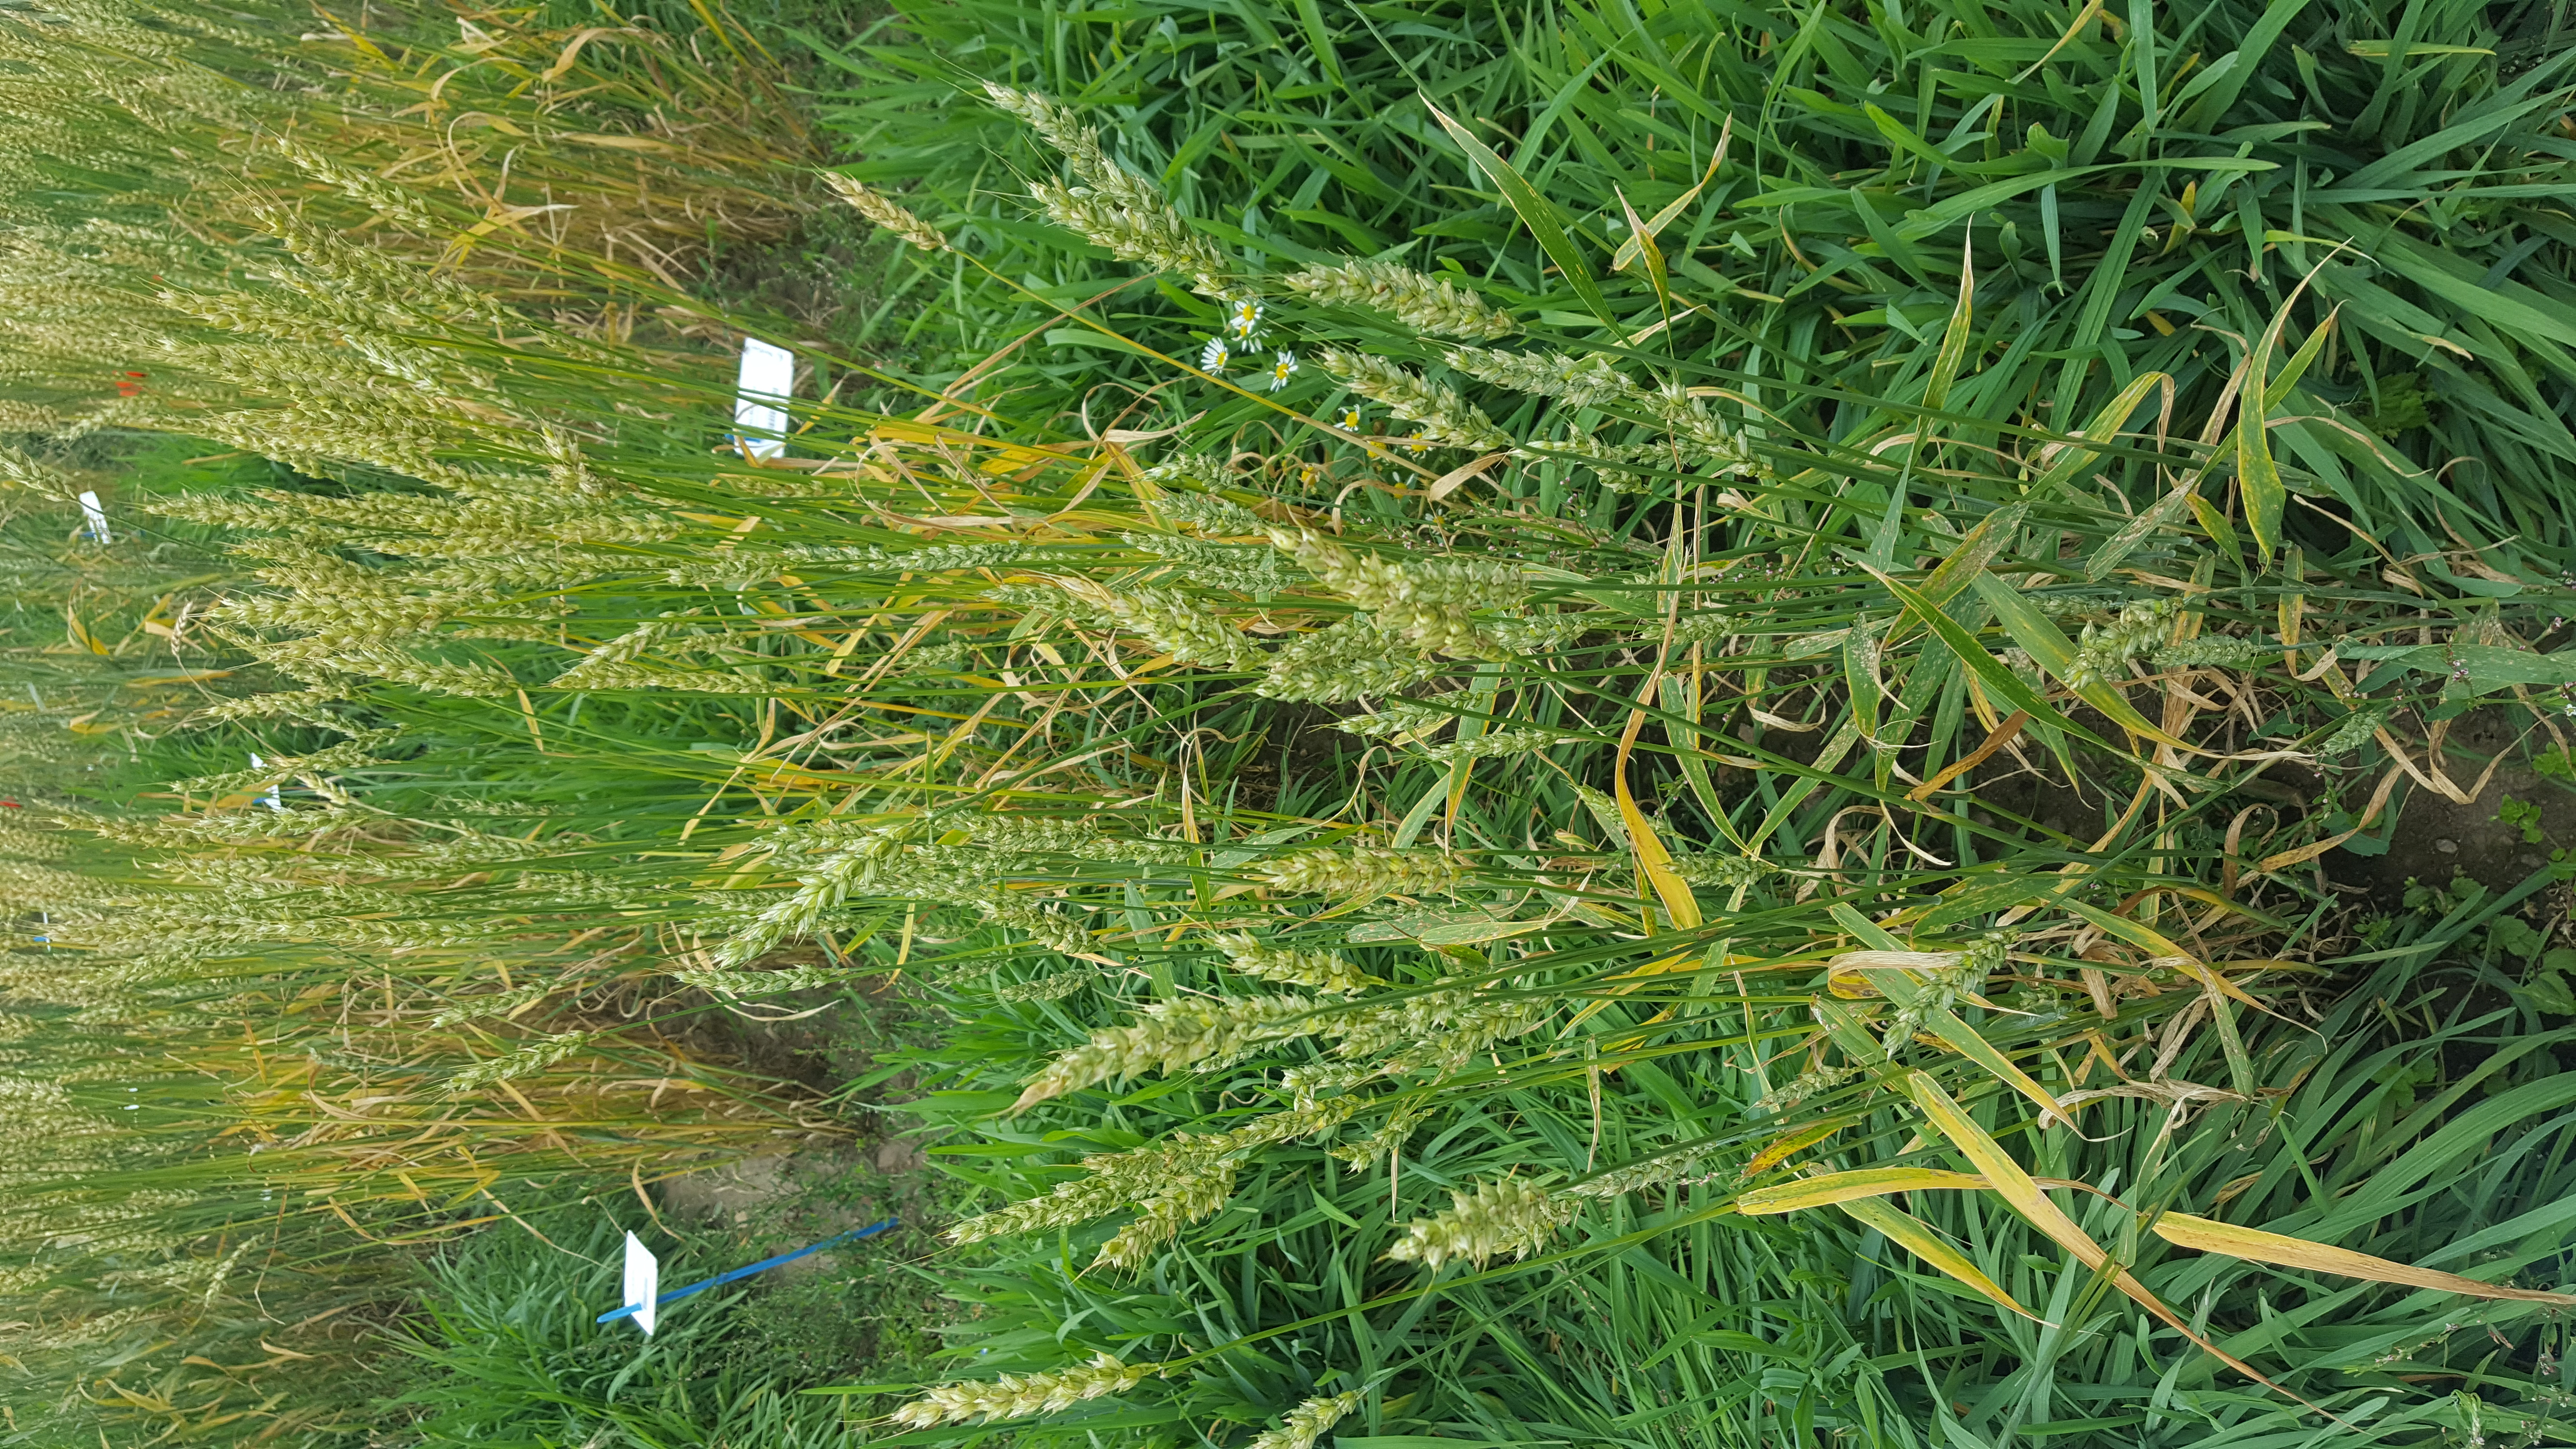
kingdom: Plantae
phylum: Tracheophyta
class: Liliopsida
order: Poales
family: Poaceae
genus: Triticum
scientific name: Triticum aestivum
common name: Common wheat
